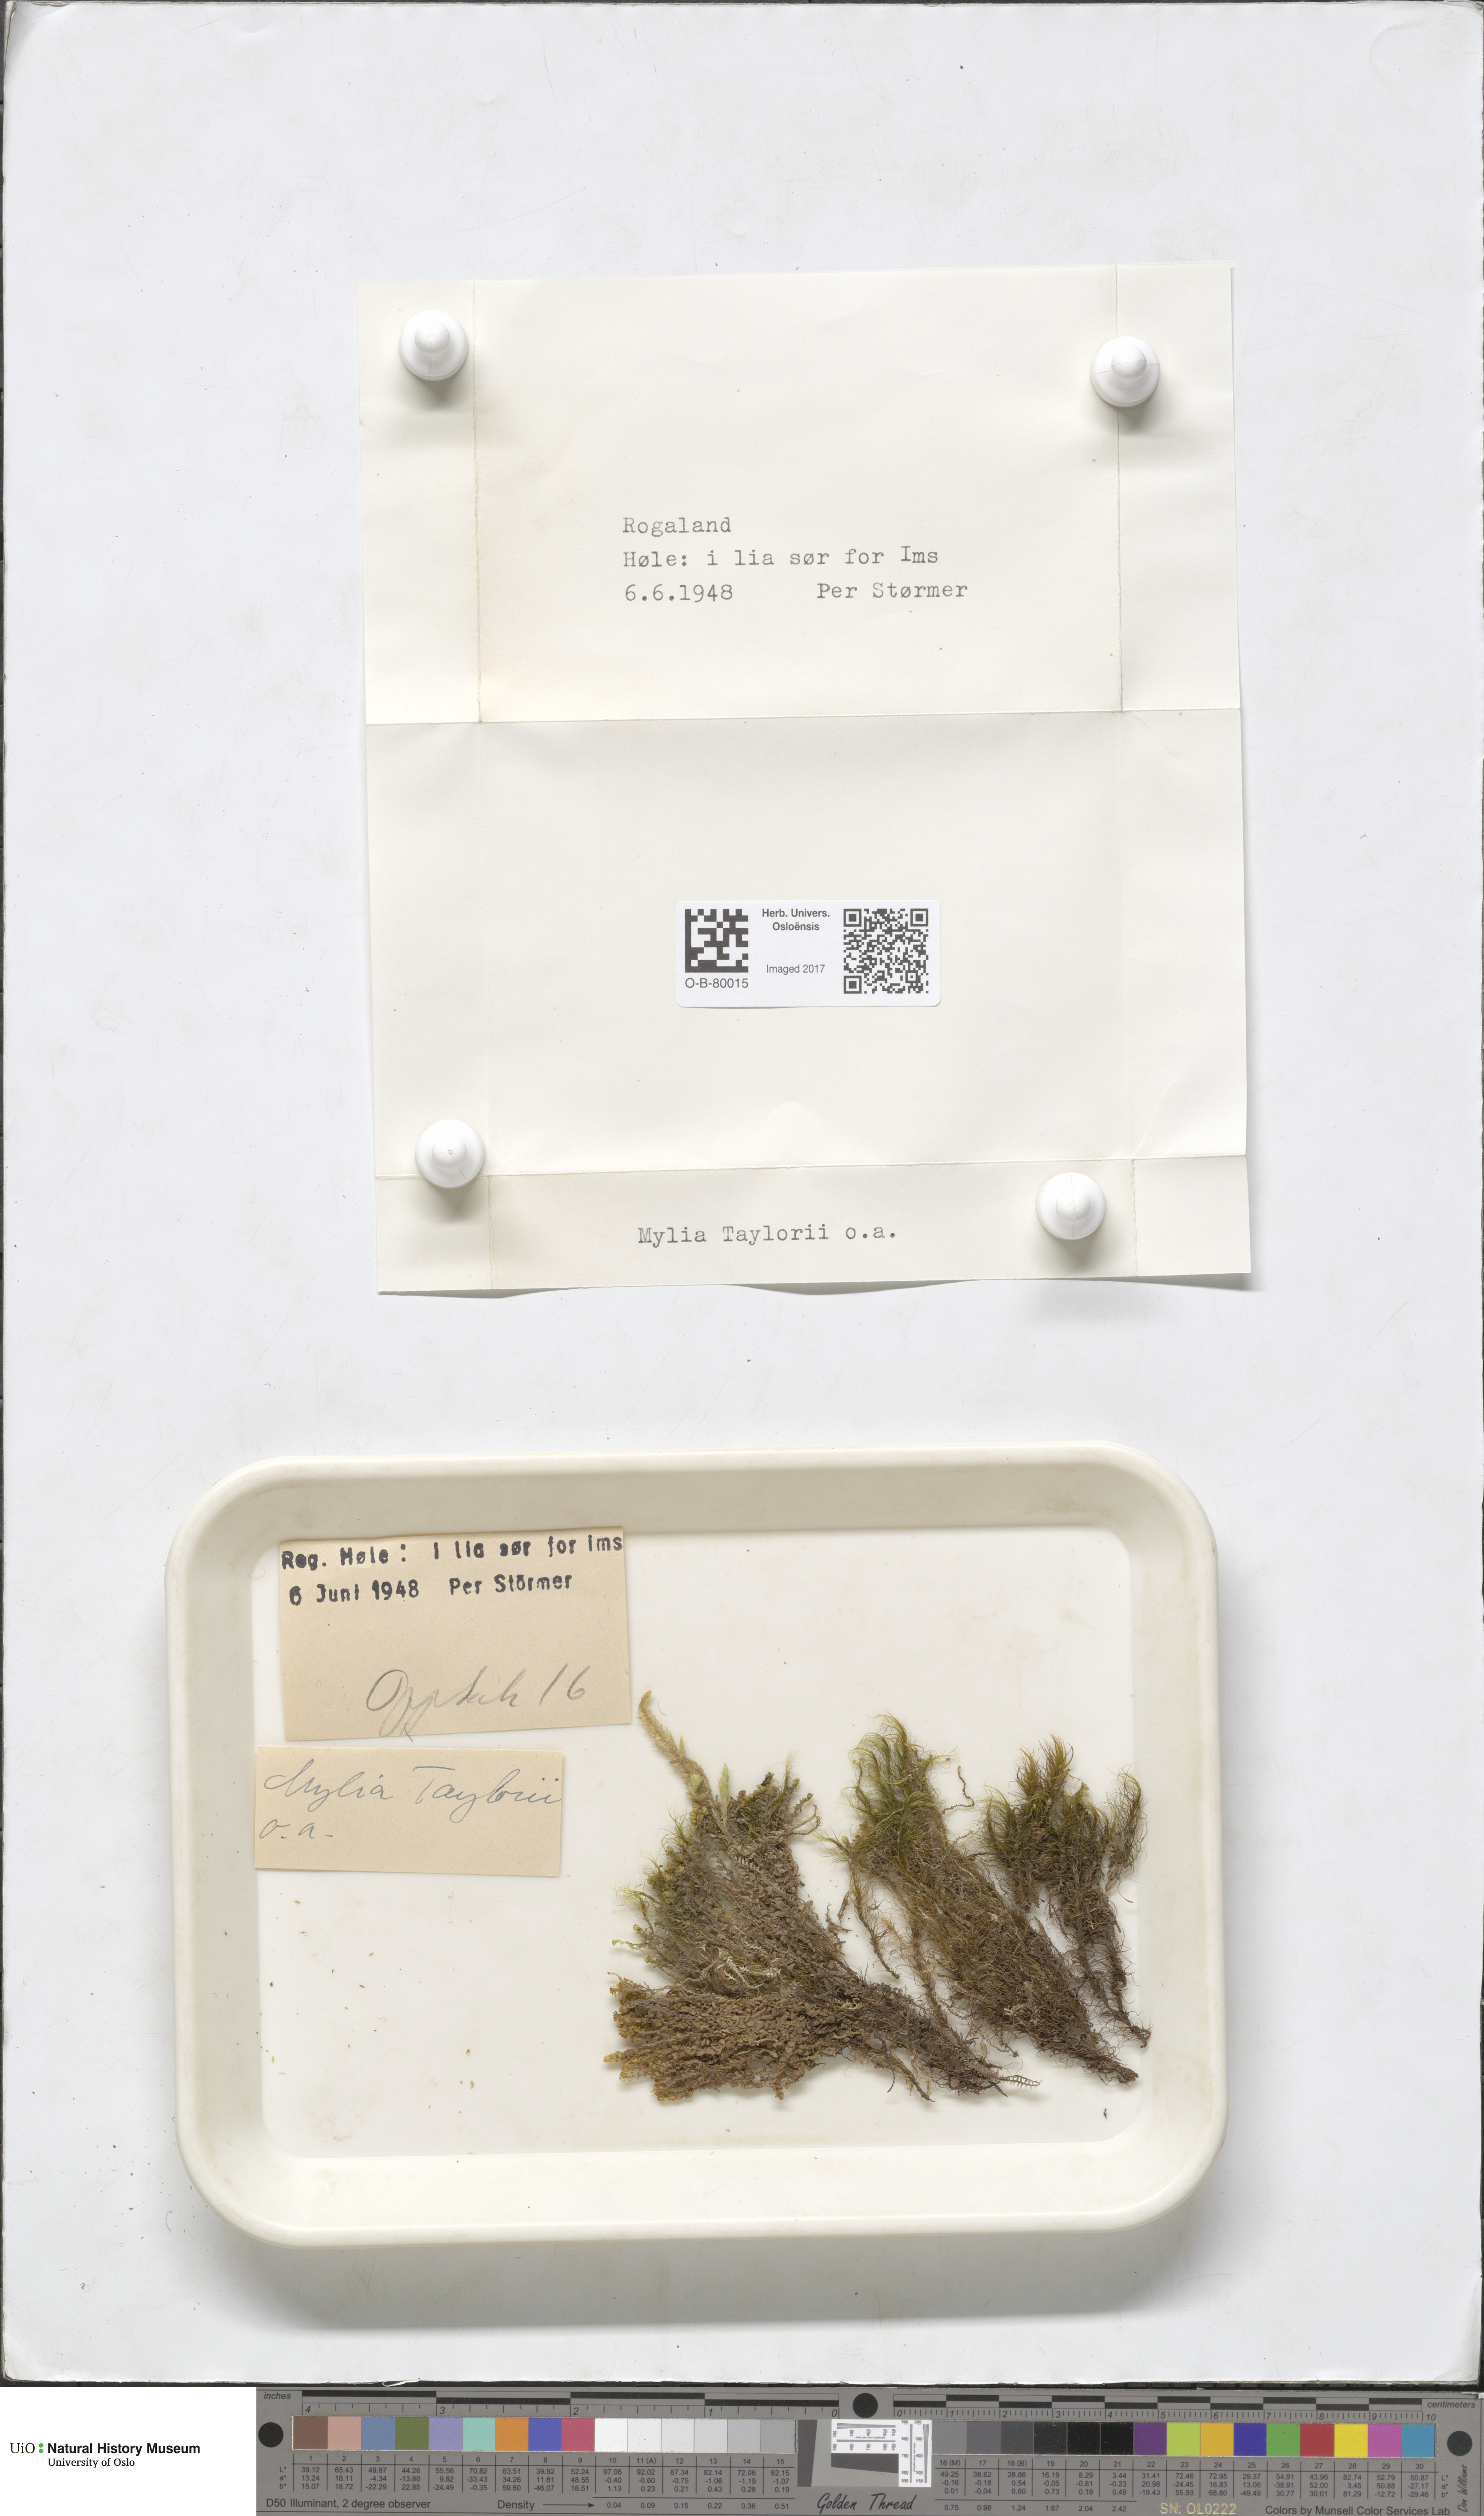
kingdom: Plantae
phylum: Marchantiophyta
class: Jungermanniopsida
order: Jungermanniales
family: Myliaceae
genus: Mylia
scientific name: Mylia taylorii
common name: Taylor s flapwort
